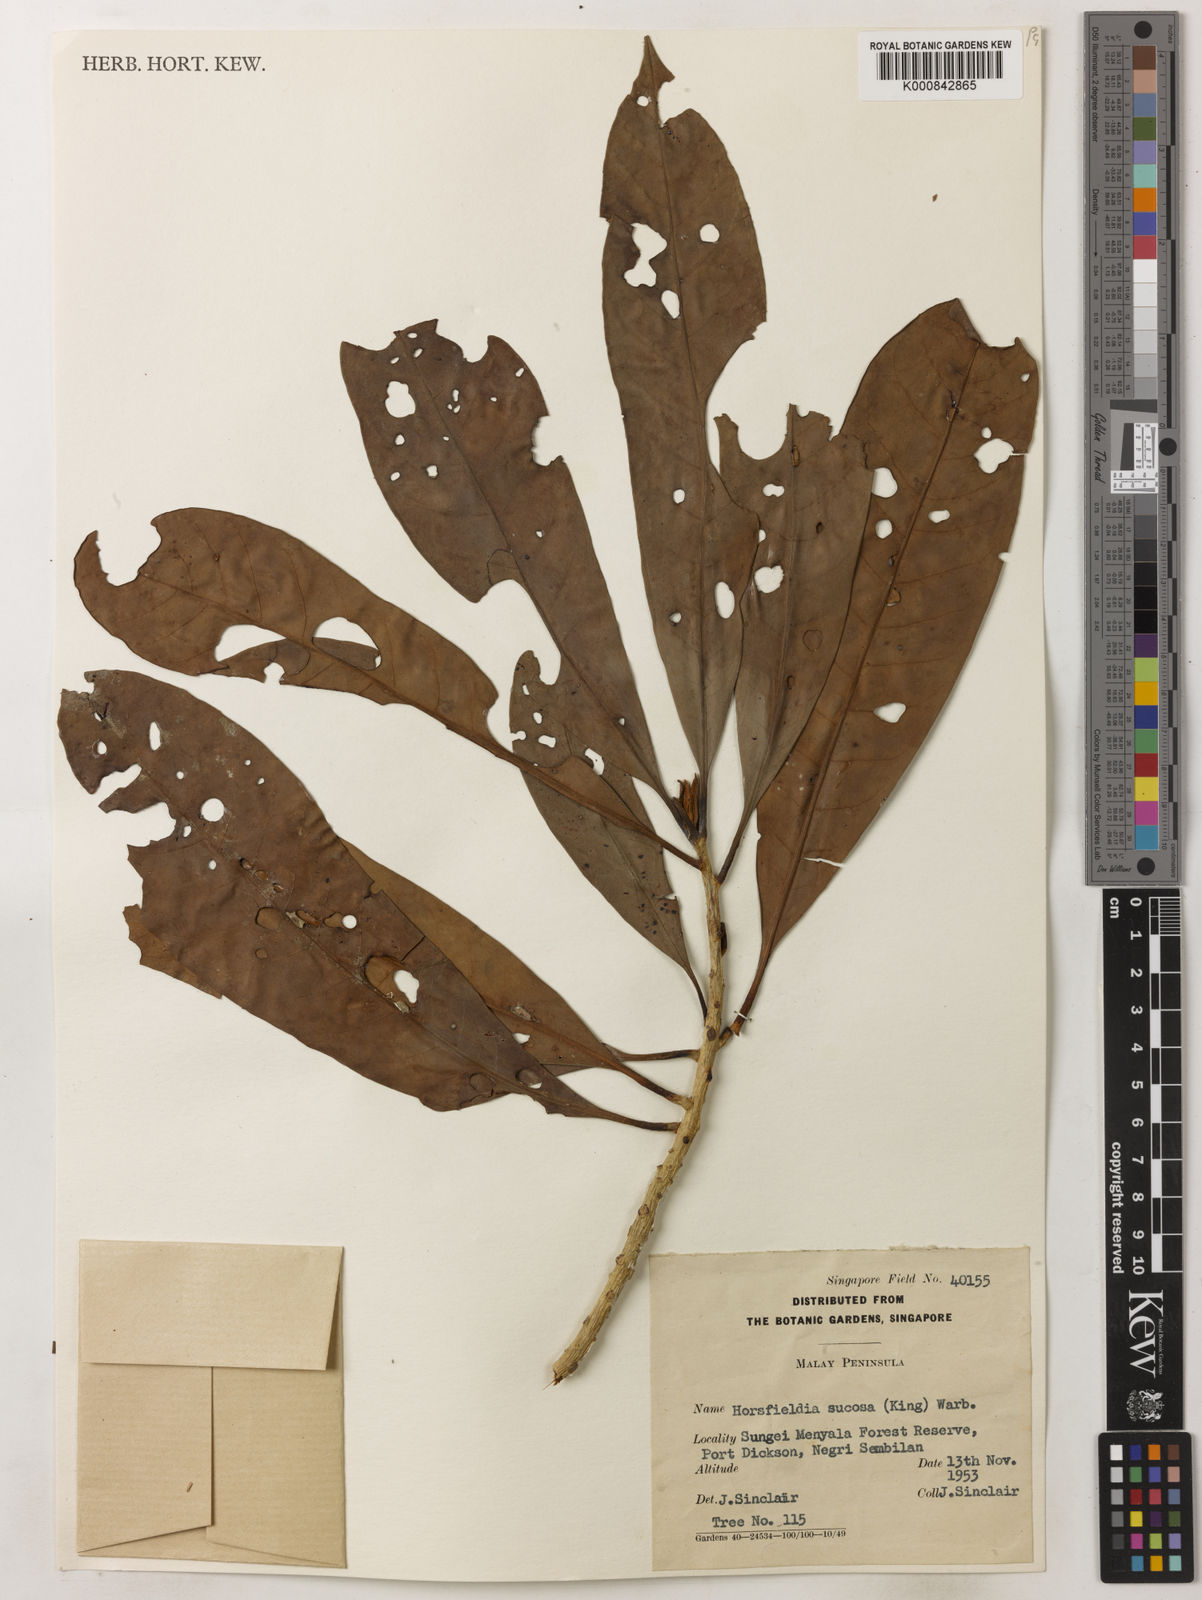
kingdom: Plantae
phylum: Tracheophyta
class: Magnoliopsida
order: Magnoliales
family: Myristicaceae
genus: Horsfieldia
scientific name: Horsfieldia sucosa
